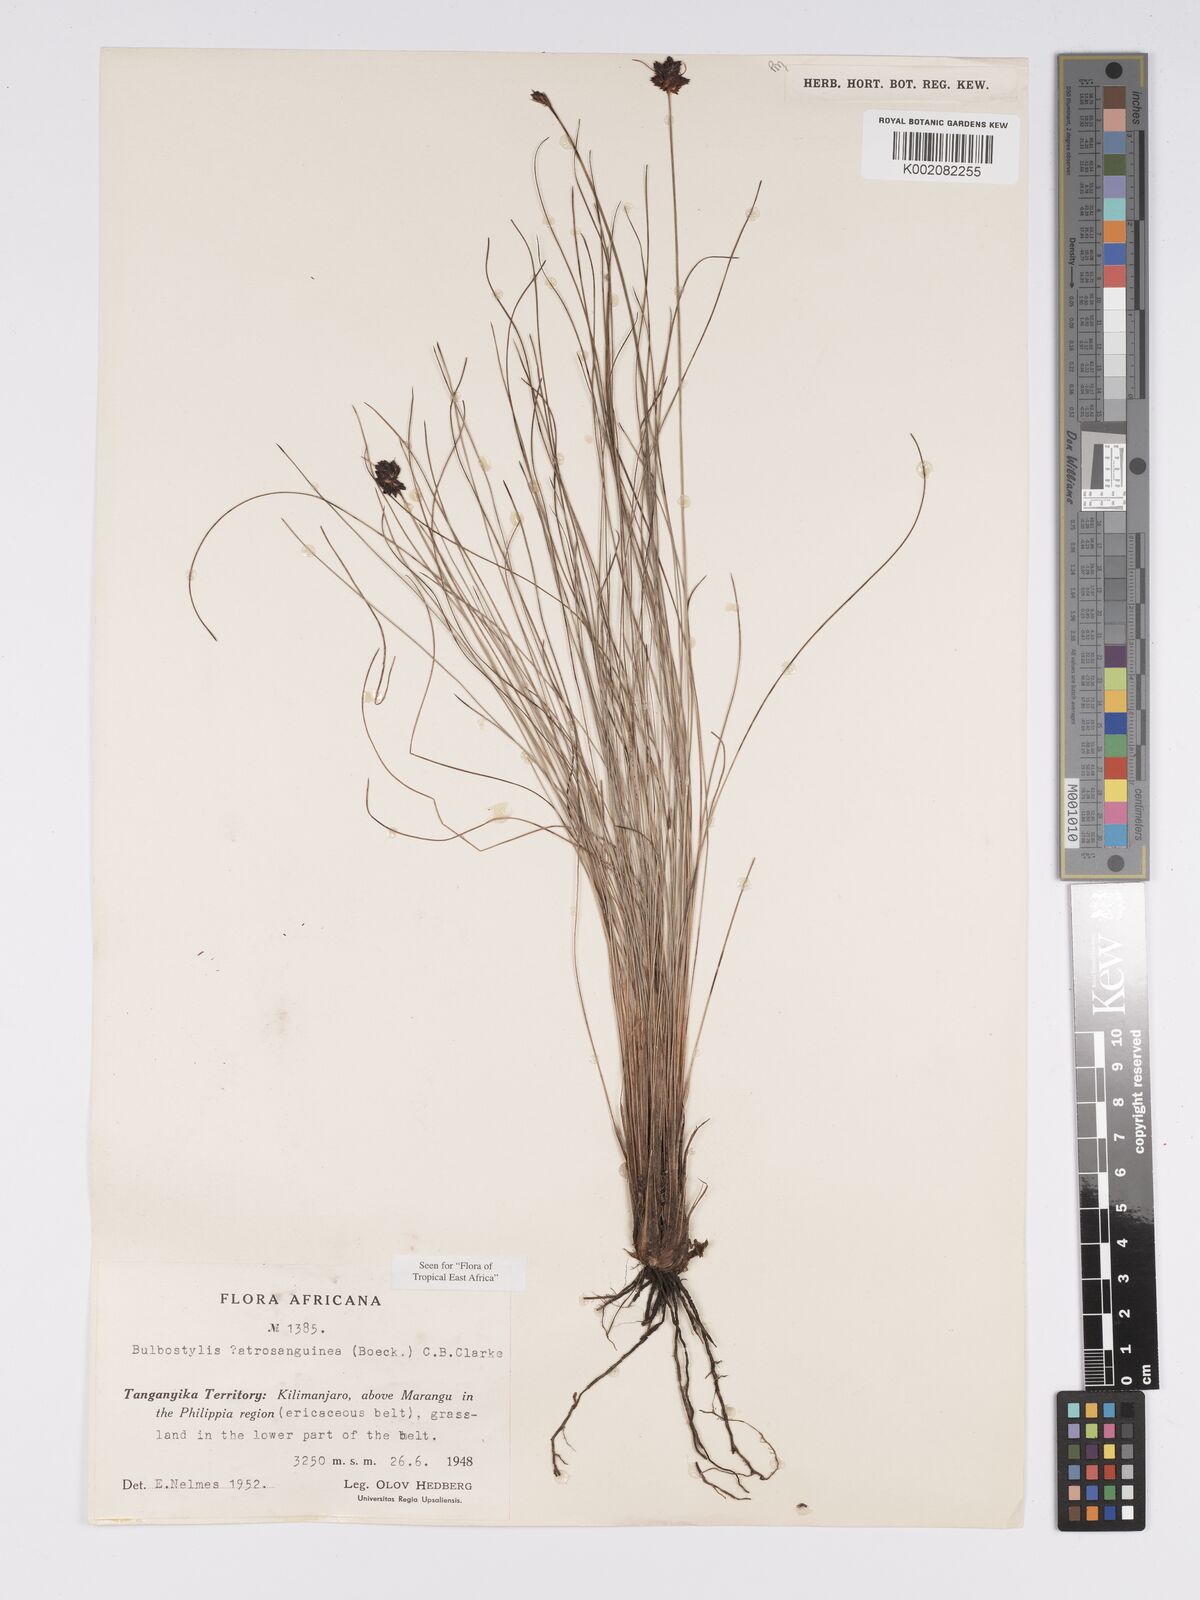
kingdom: Plantae
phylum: Tracheophyta
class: Liliopsida
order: Poales
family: Cyperaceae
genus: Bulbostylis
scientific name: Bulbostylis atrosanguinea
